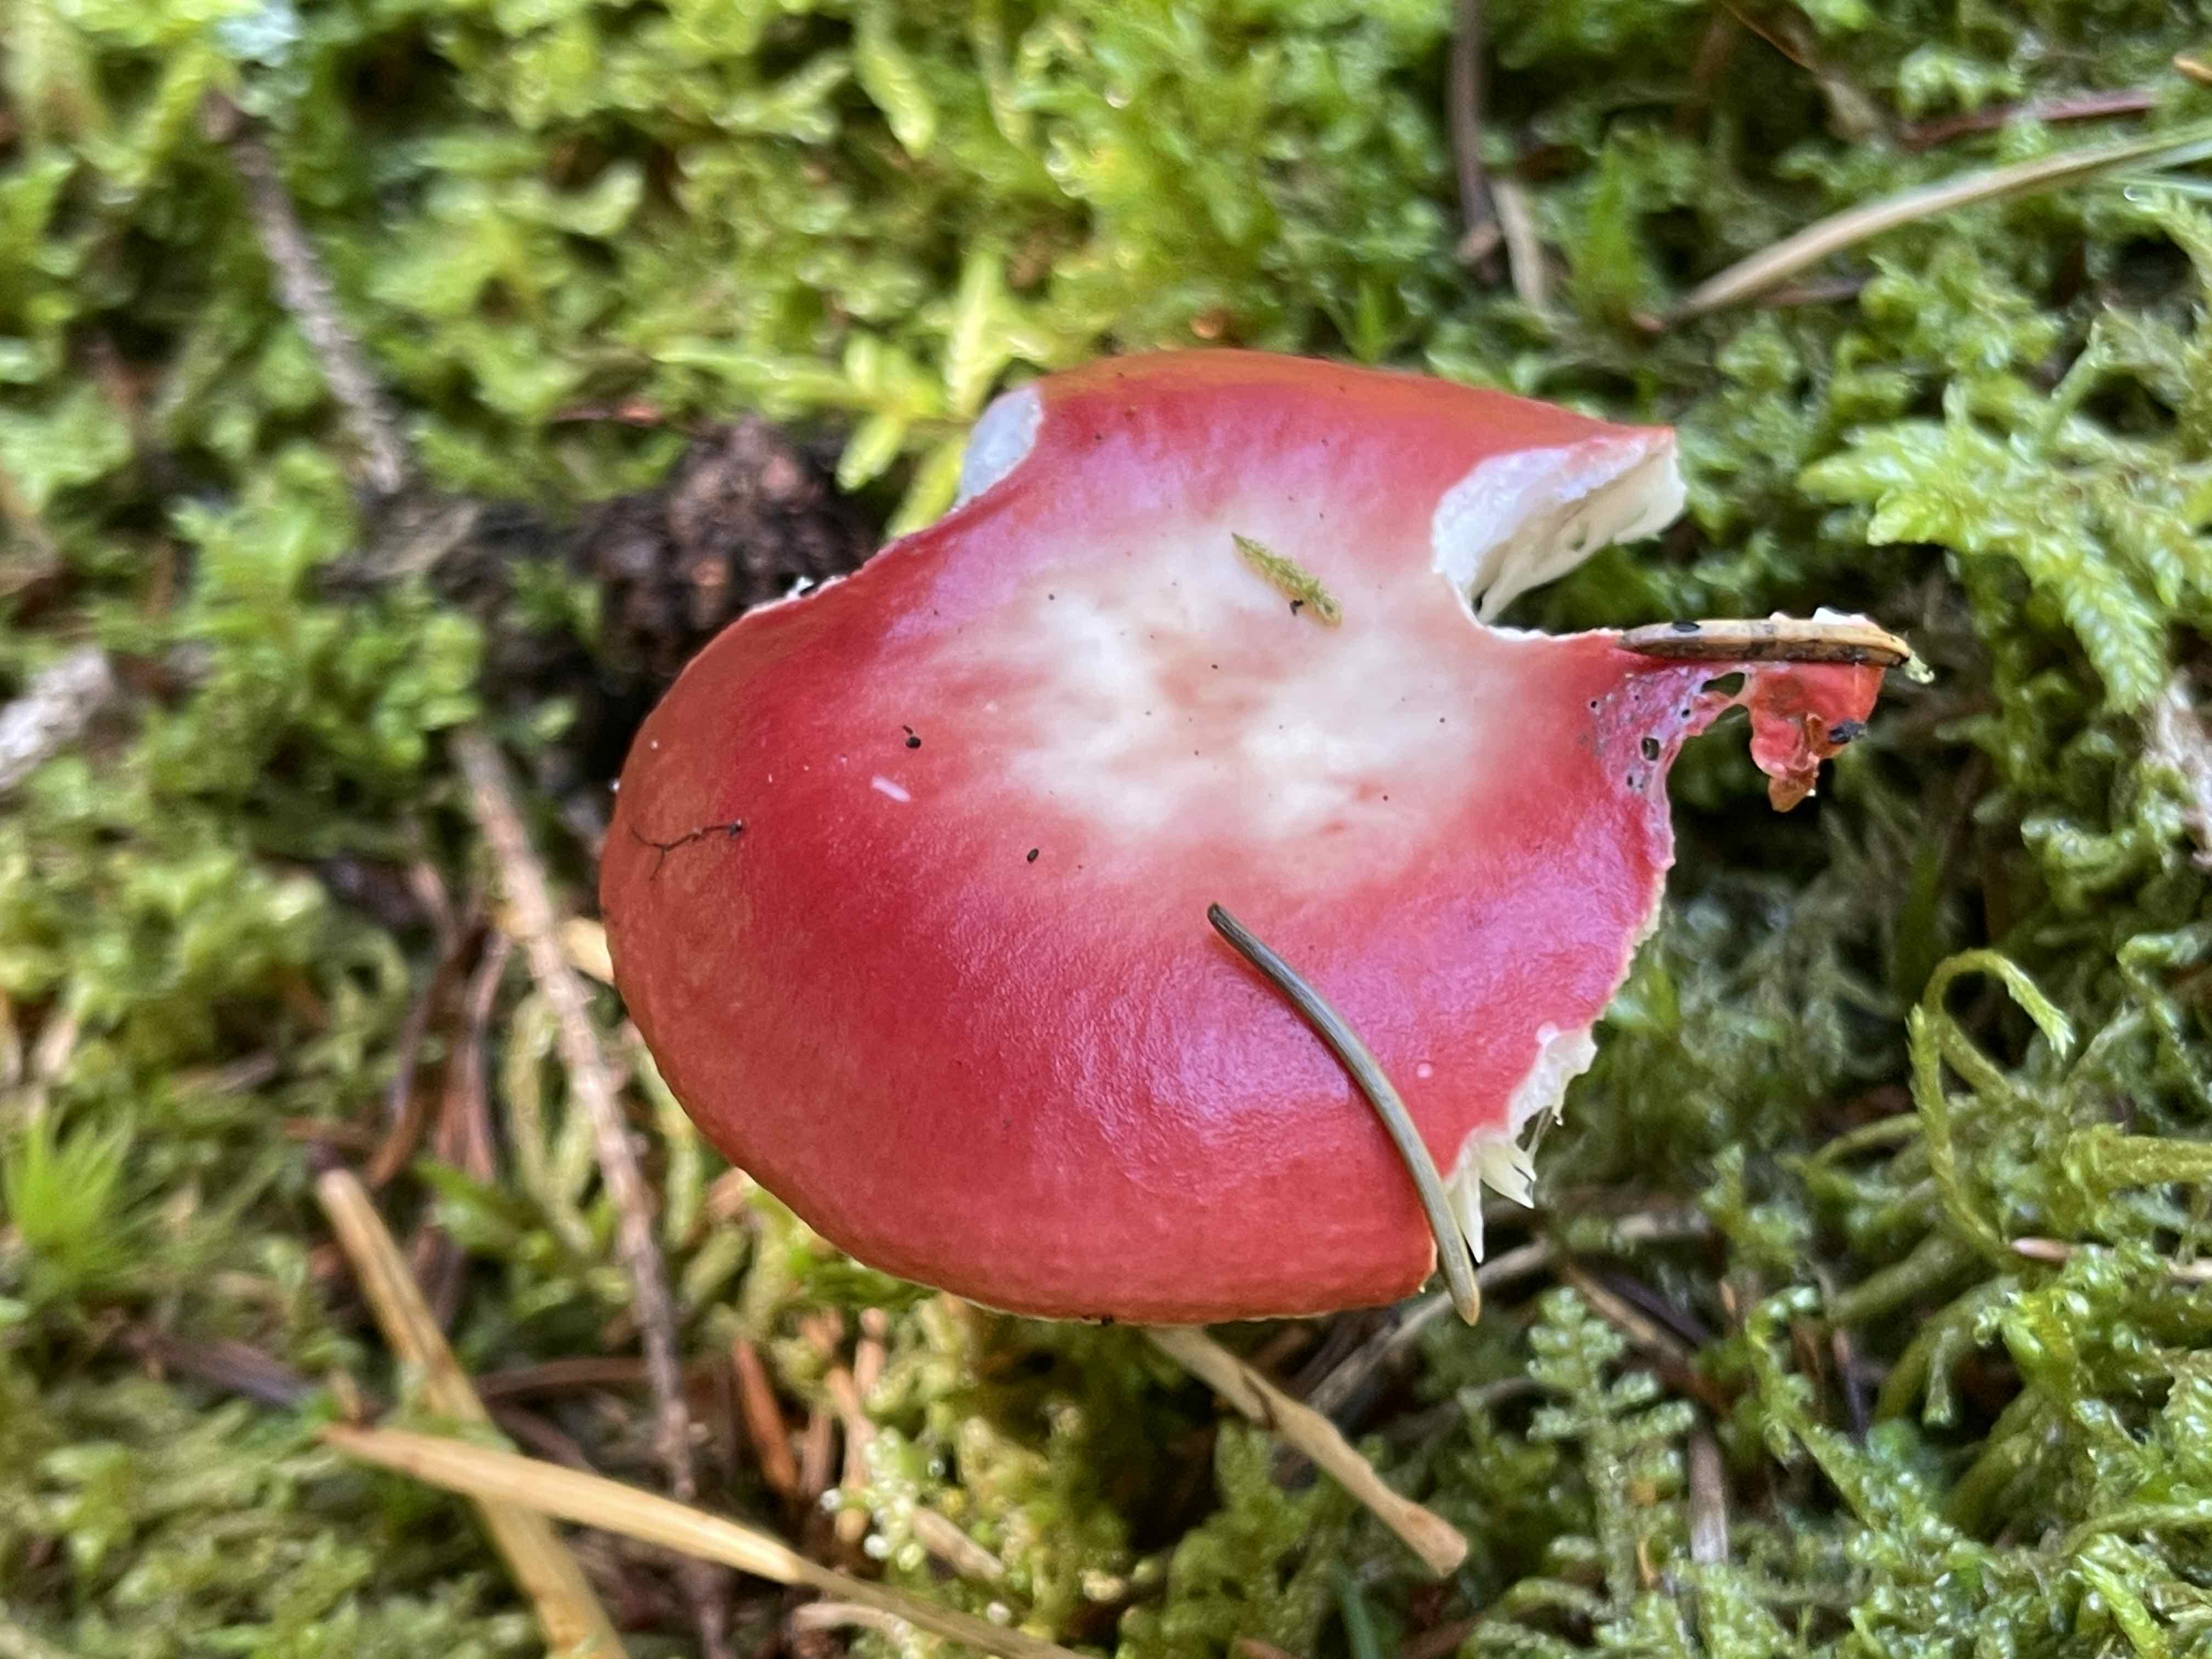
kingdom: Fungi
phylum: Basidiomycota
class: Agaricomycetes
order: Russulales
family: Russulaceae
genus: Russula
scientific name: Russula emetica
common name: stor gift-skørhat
